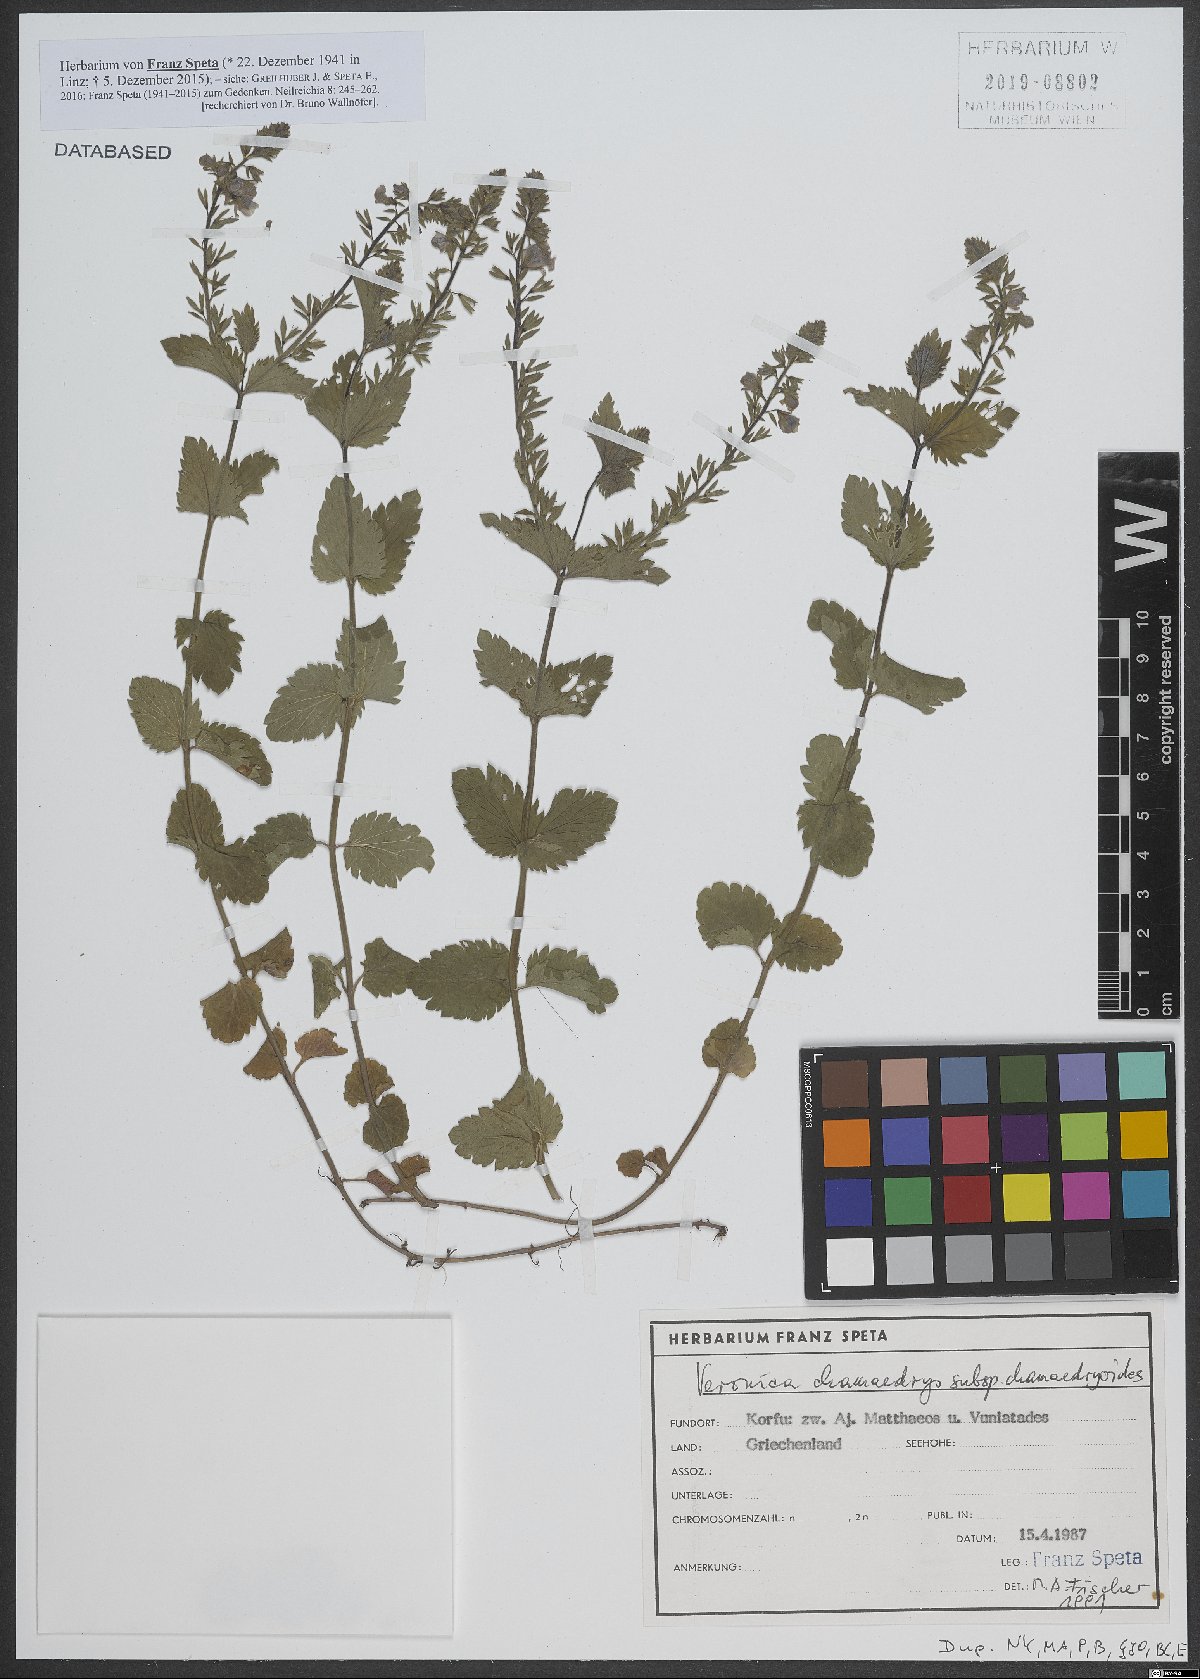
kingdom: Plantae
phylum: Tracheophyta
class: Magnoliopsida
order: Lamiales
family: Plantaginaceae
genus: Veronica
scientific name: Veronica chamaedrys
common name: Germander speedwell
